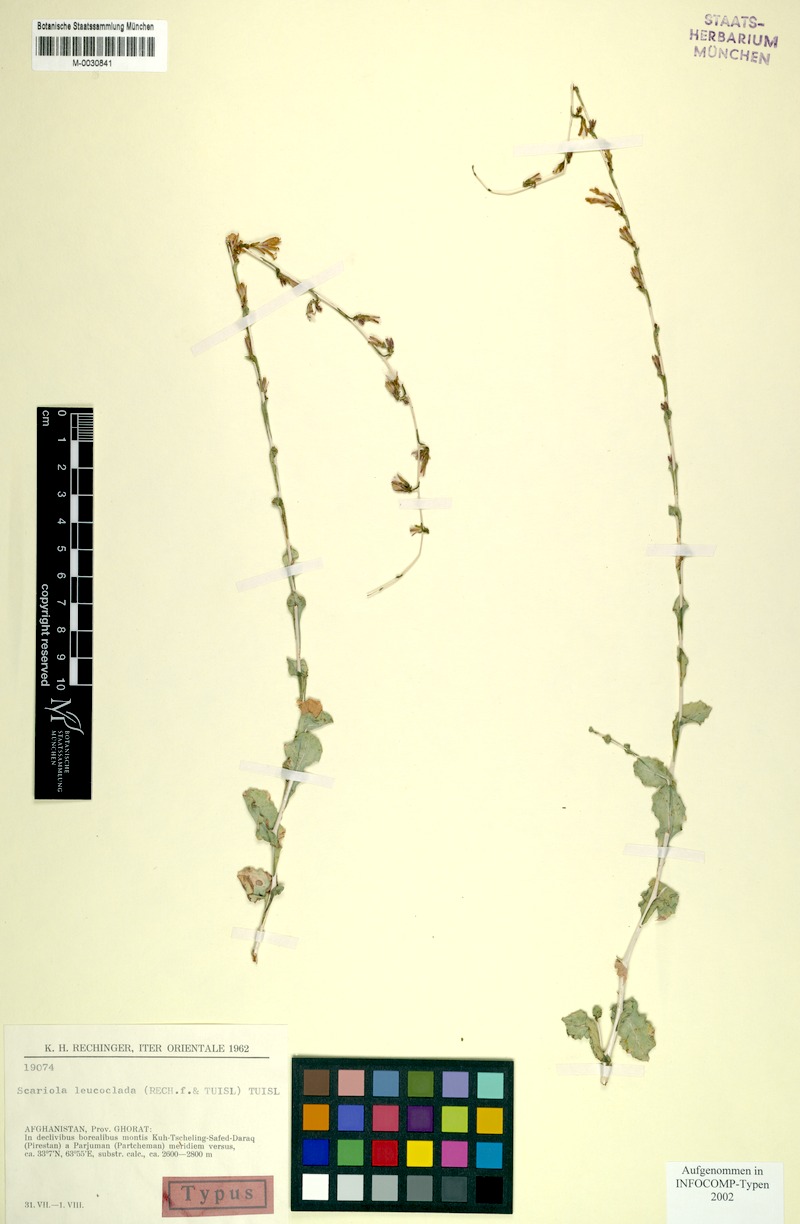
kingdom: Plantae
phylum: Tracheophyta
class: Magnoliopsida
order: Asterales
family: Asteraceae
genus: Lactuca
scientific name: Lactuca leucoclada
